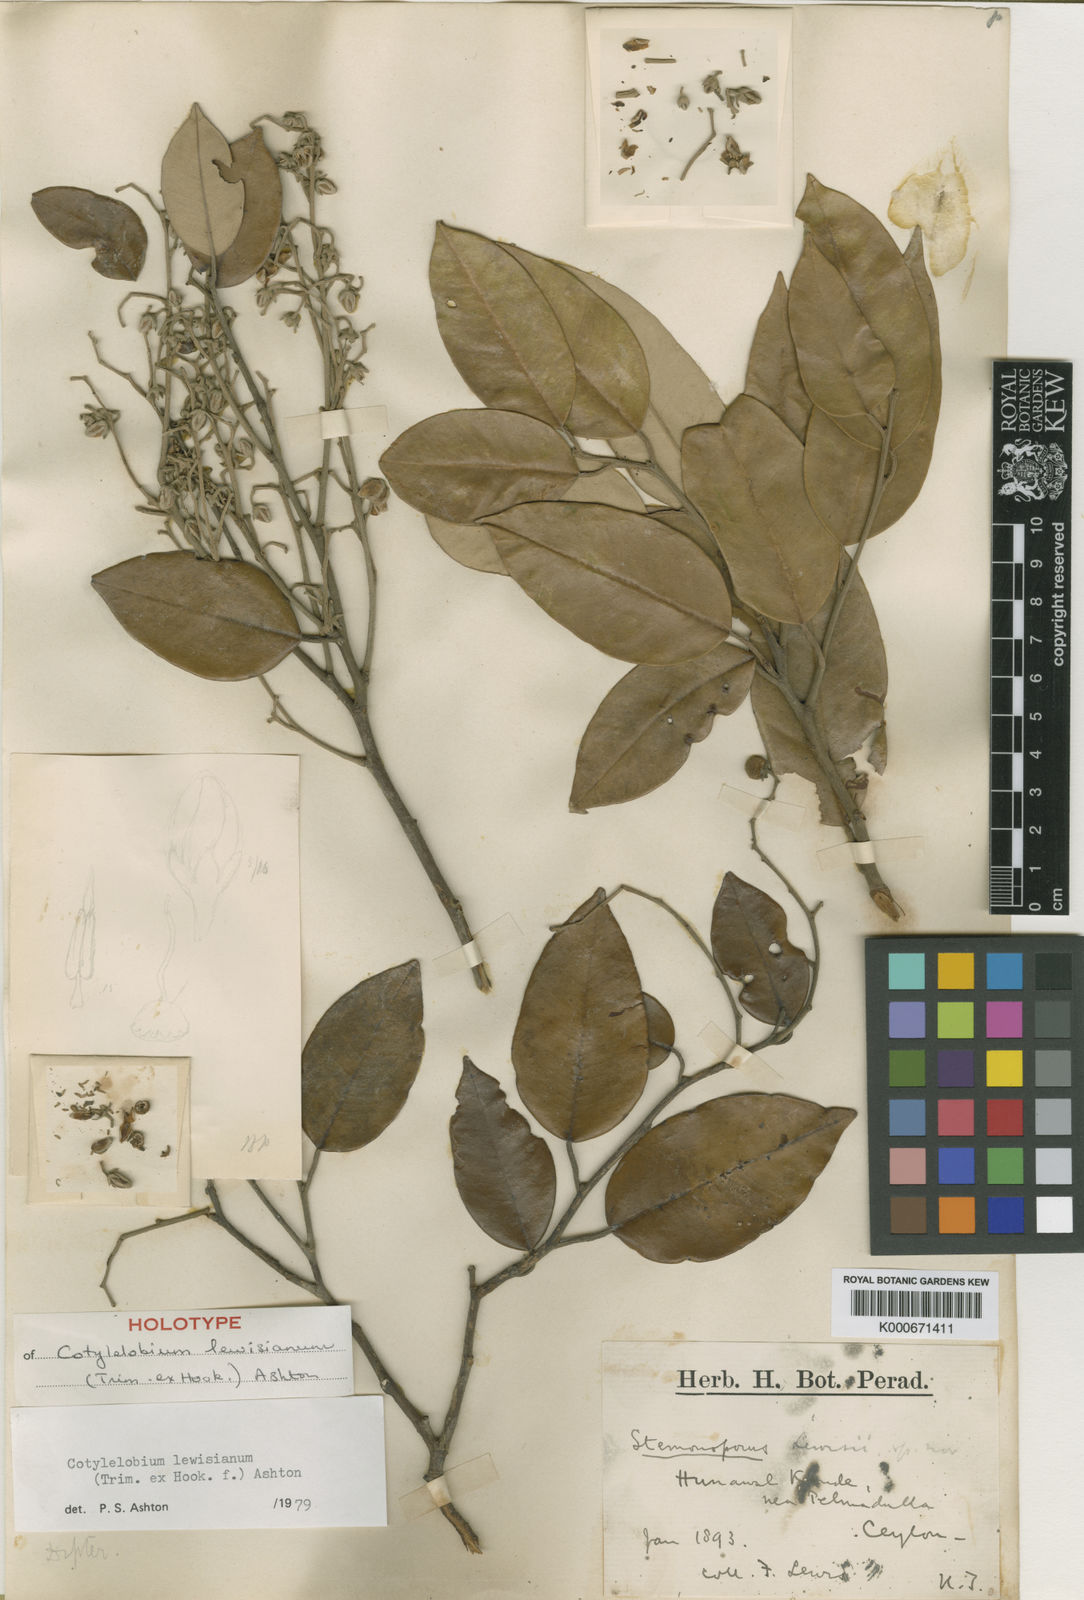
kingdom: Plantae
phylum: Tracheophyta
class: Magnoliopsida
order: Malvales
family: Dipterocarpaceae
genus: Cotylelobium
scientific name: Cotylelobium lewisianum
